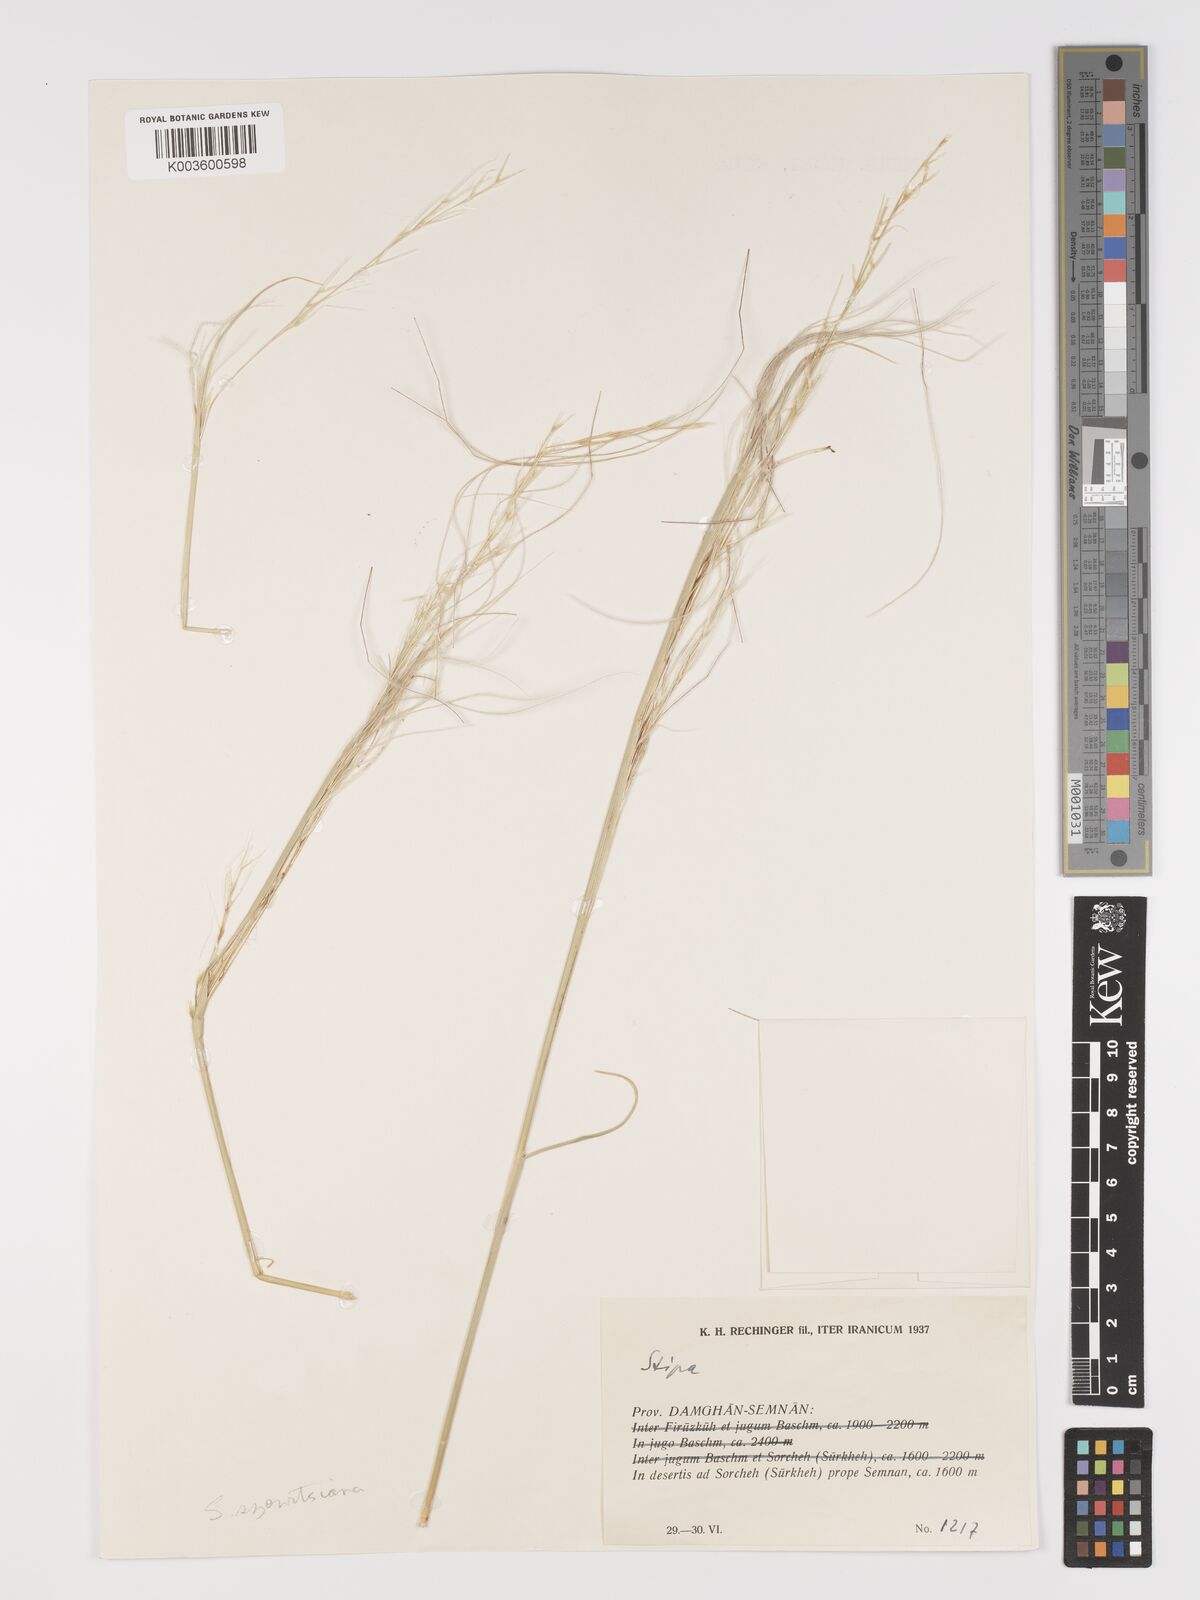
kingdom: Plantae
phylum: Tracheophyta
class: Liliopsida
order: Poales
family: Poaceae
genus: Stipa
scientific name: Stipa barbata
